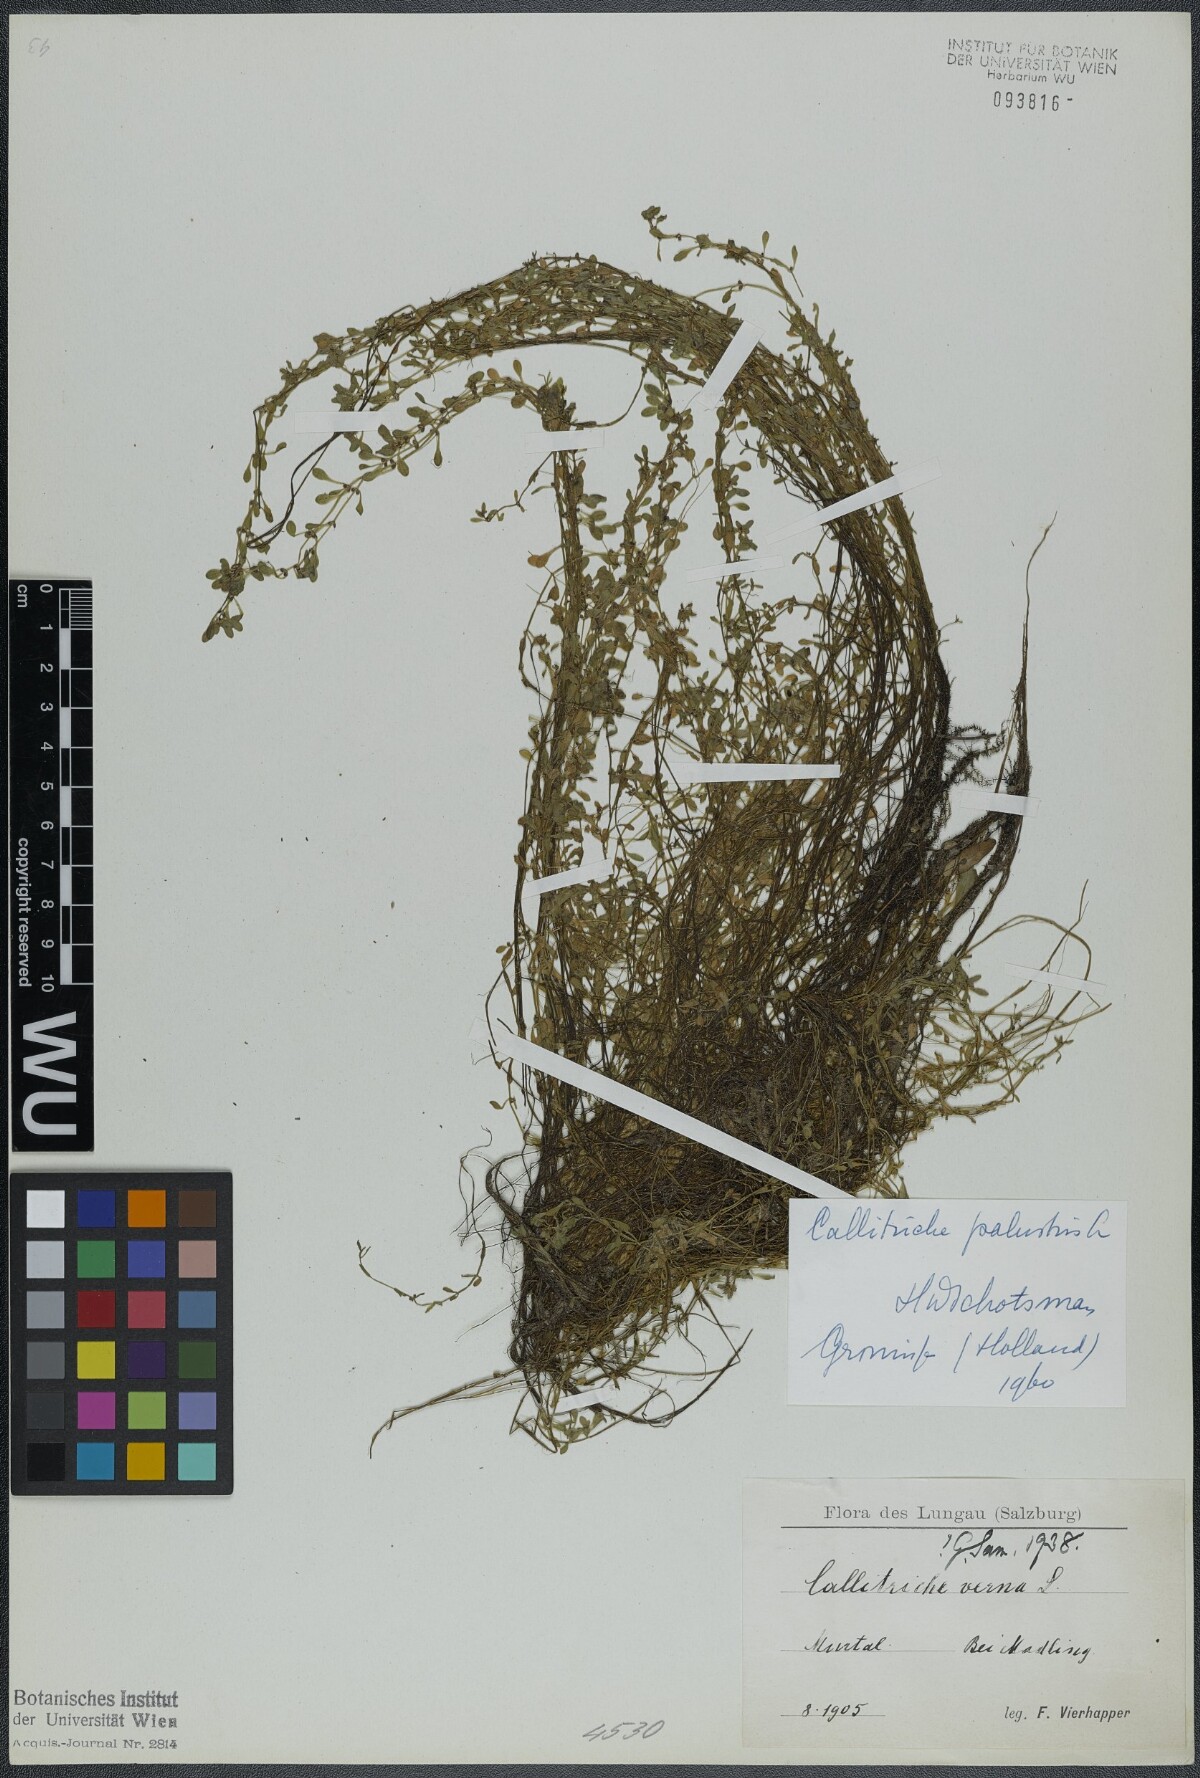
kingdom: Plantae
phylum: Tracheophyta
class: Magnoliopsida
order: Lamiales
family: Plantaginaceae
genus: Callitriche
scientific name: Callitriche palustris
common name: Spring water-starwort
